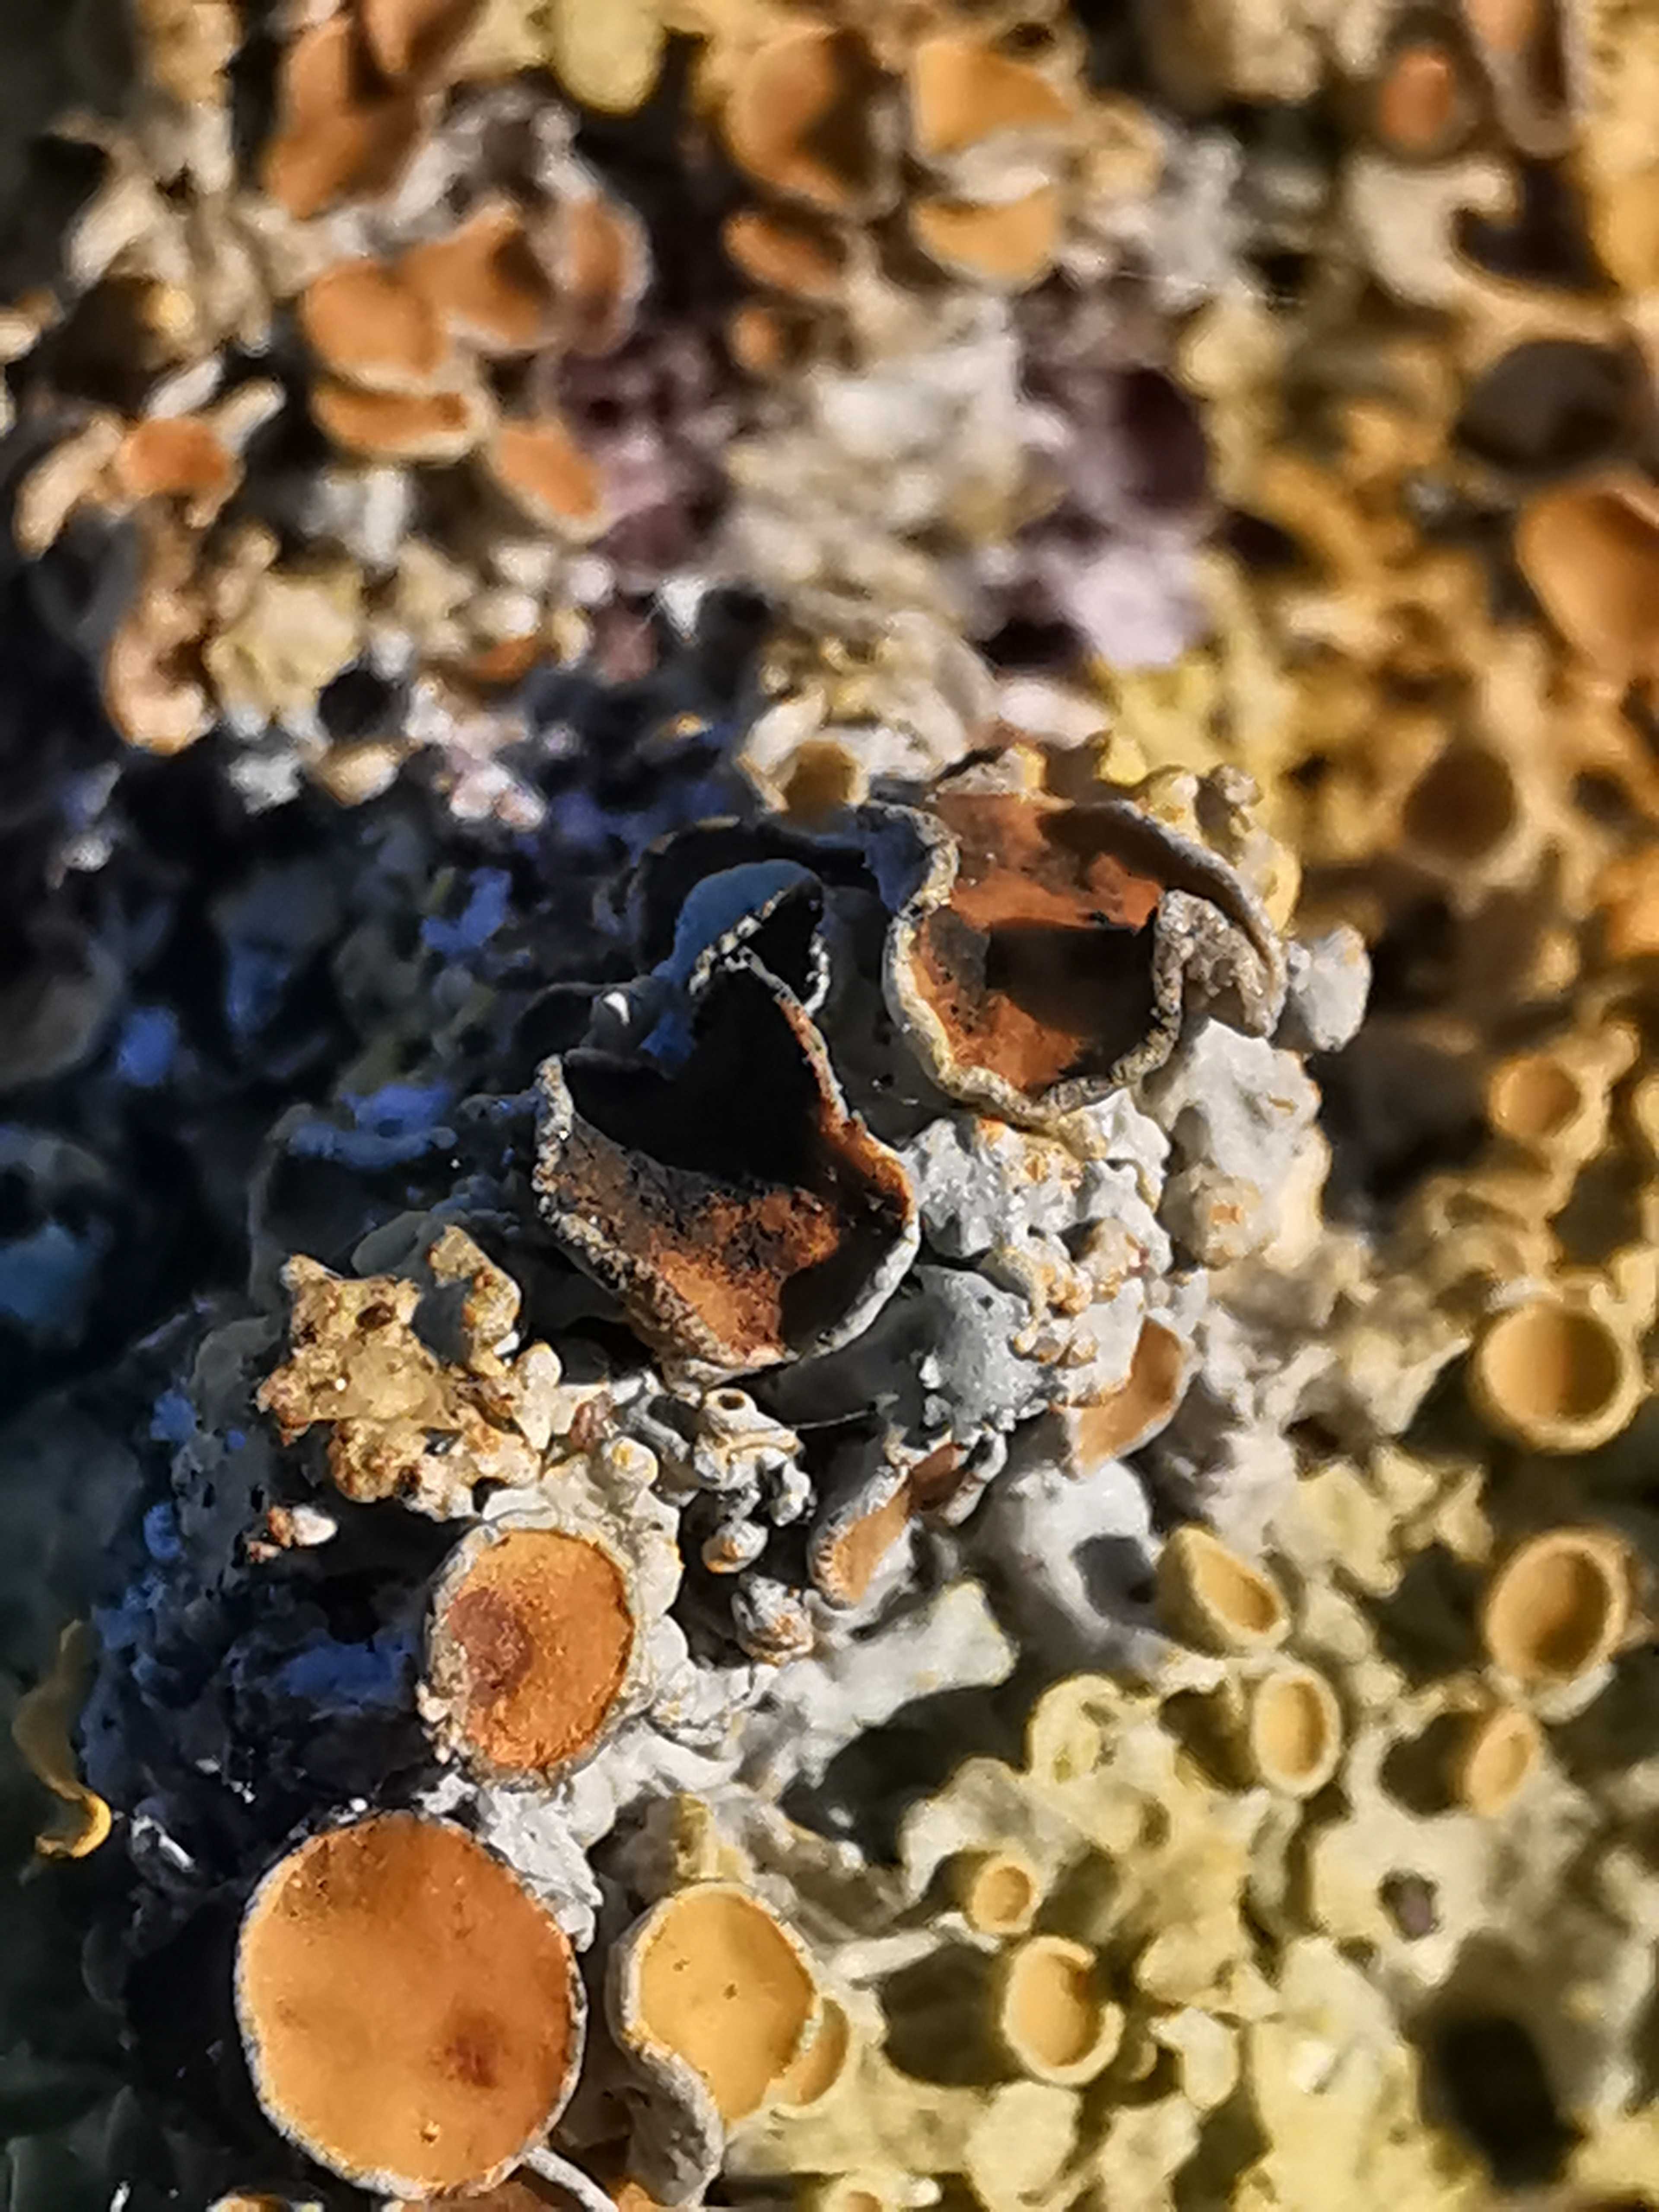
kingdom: Fungi
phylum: Ascomycota
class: Dothideomycetes
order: Mycosphaerellales
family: Teratosphaeriaceae
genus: Xanthoriicola
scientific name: Xanthoriicola physciae
